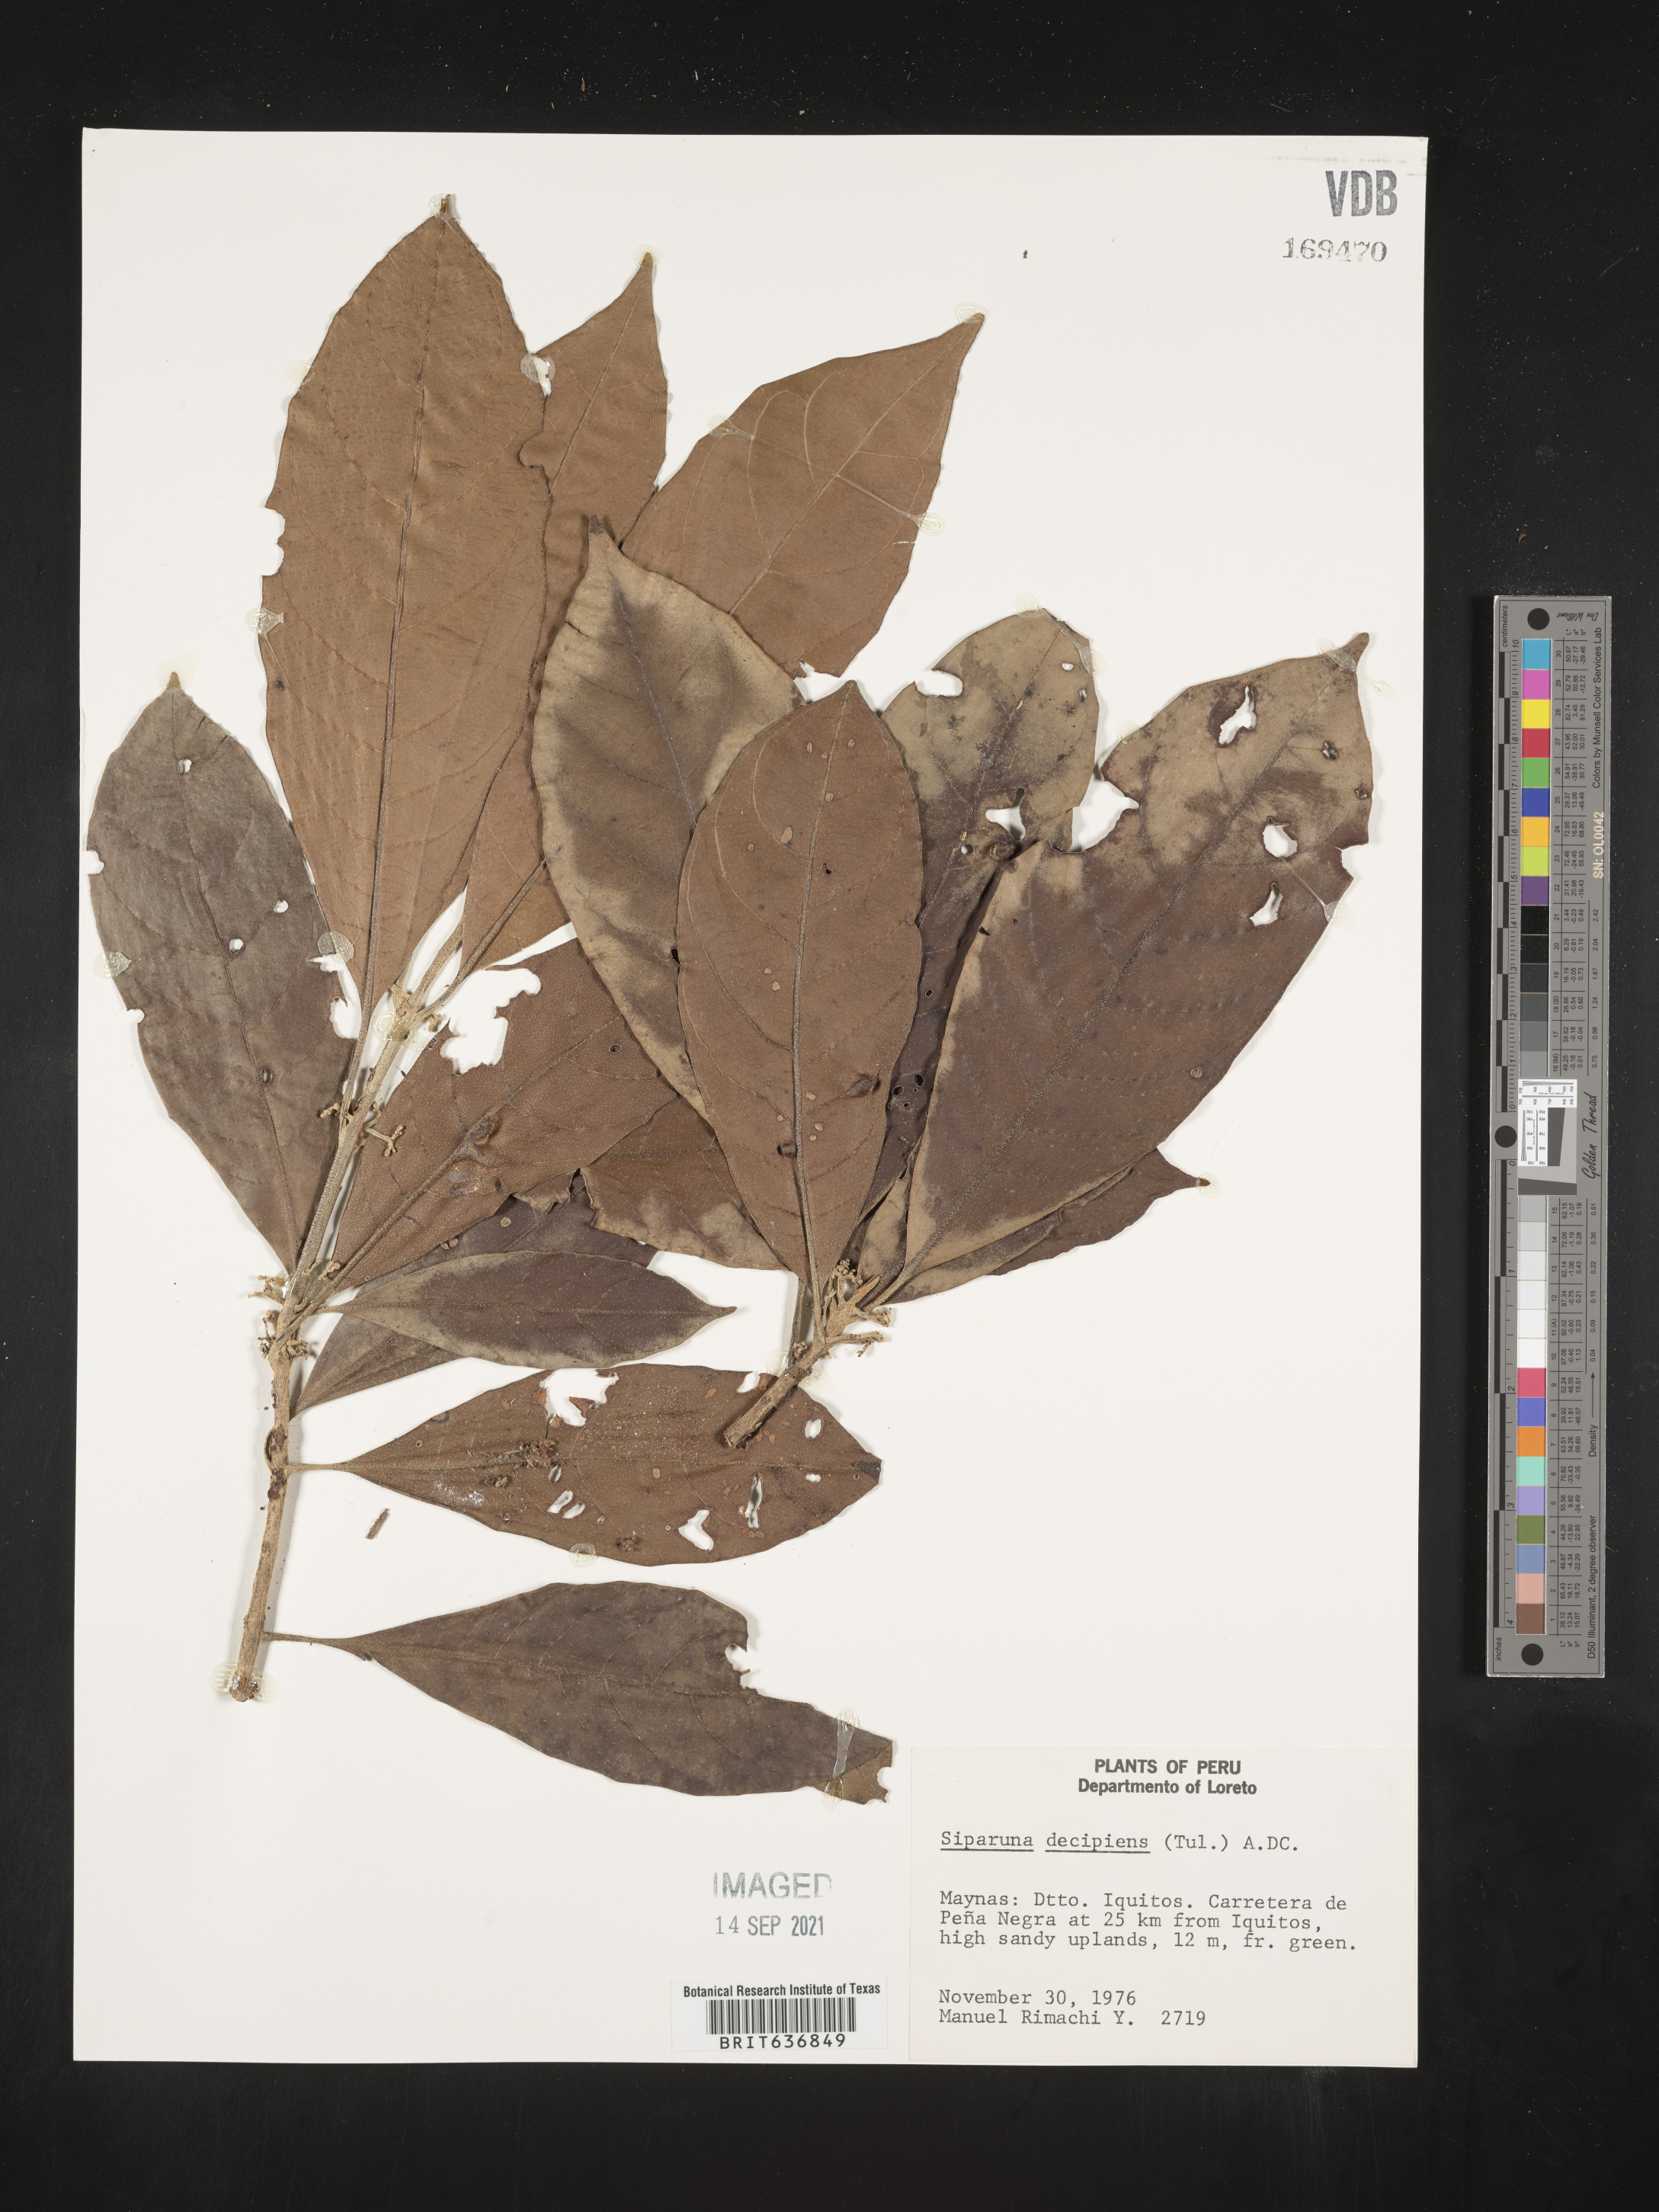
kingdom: Plantae
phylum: Tracheophyta
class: Magnoliopsida
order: Laurales
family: Siparunaceae
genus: Siparuna
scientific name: Siparuna
